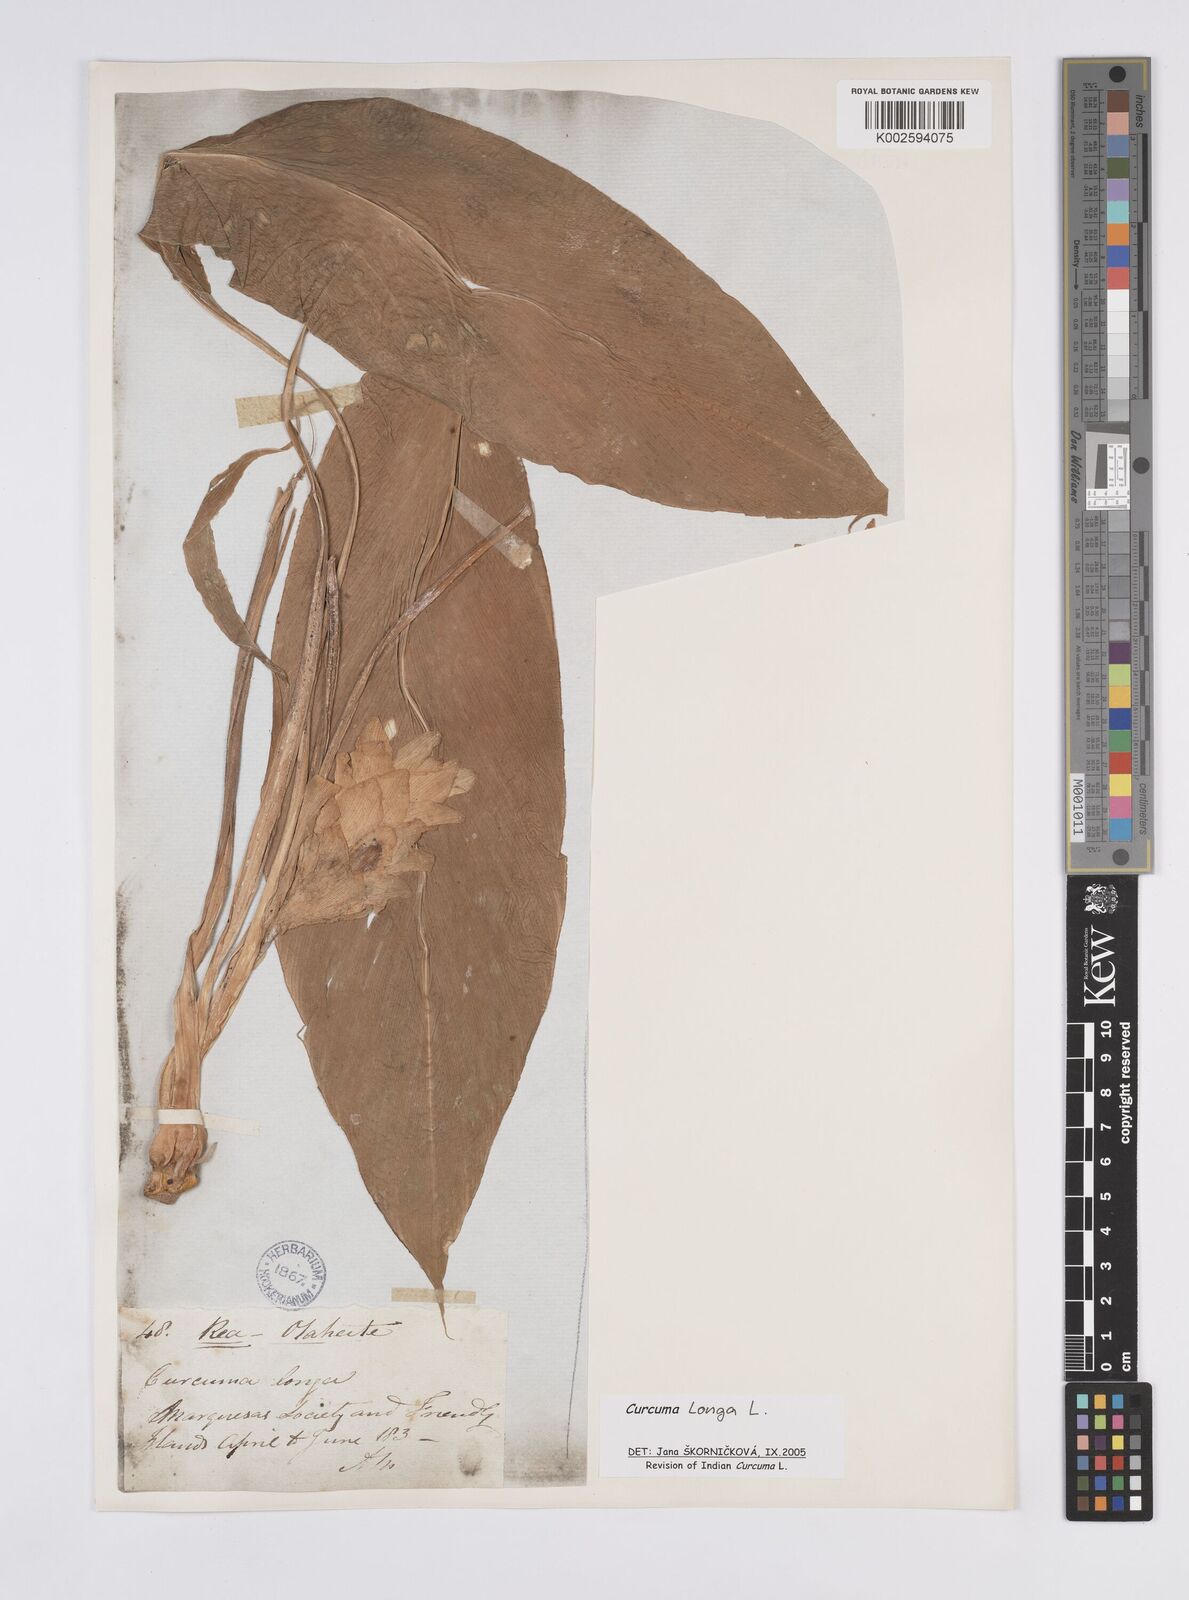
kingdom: Plantae
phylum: Tracheophyta
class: Liliopsida
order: Zingiberales
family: Zingiberaceae
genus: Curcuma
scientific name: Curcuma longa
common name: Turmeric
